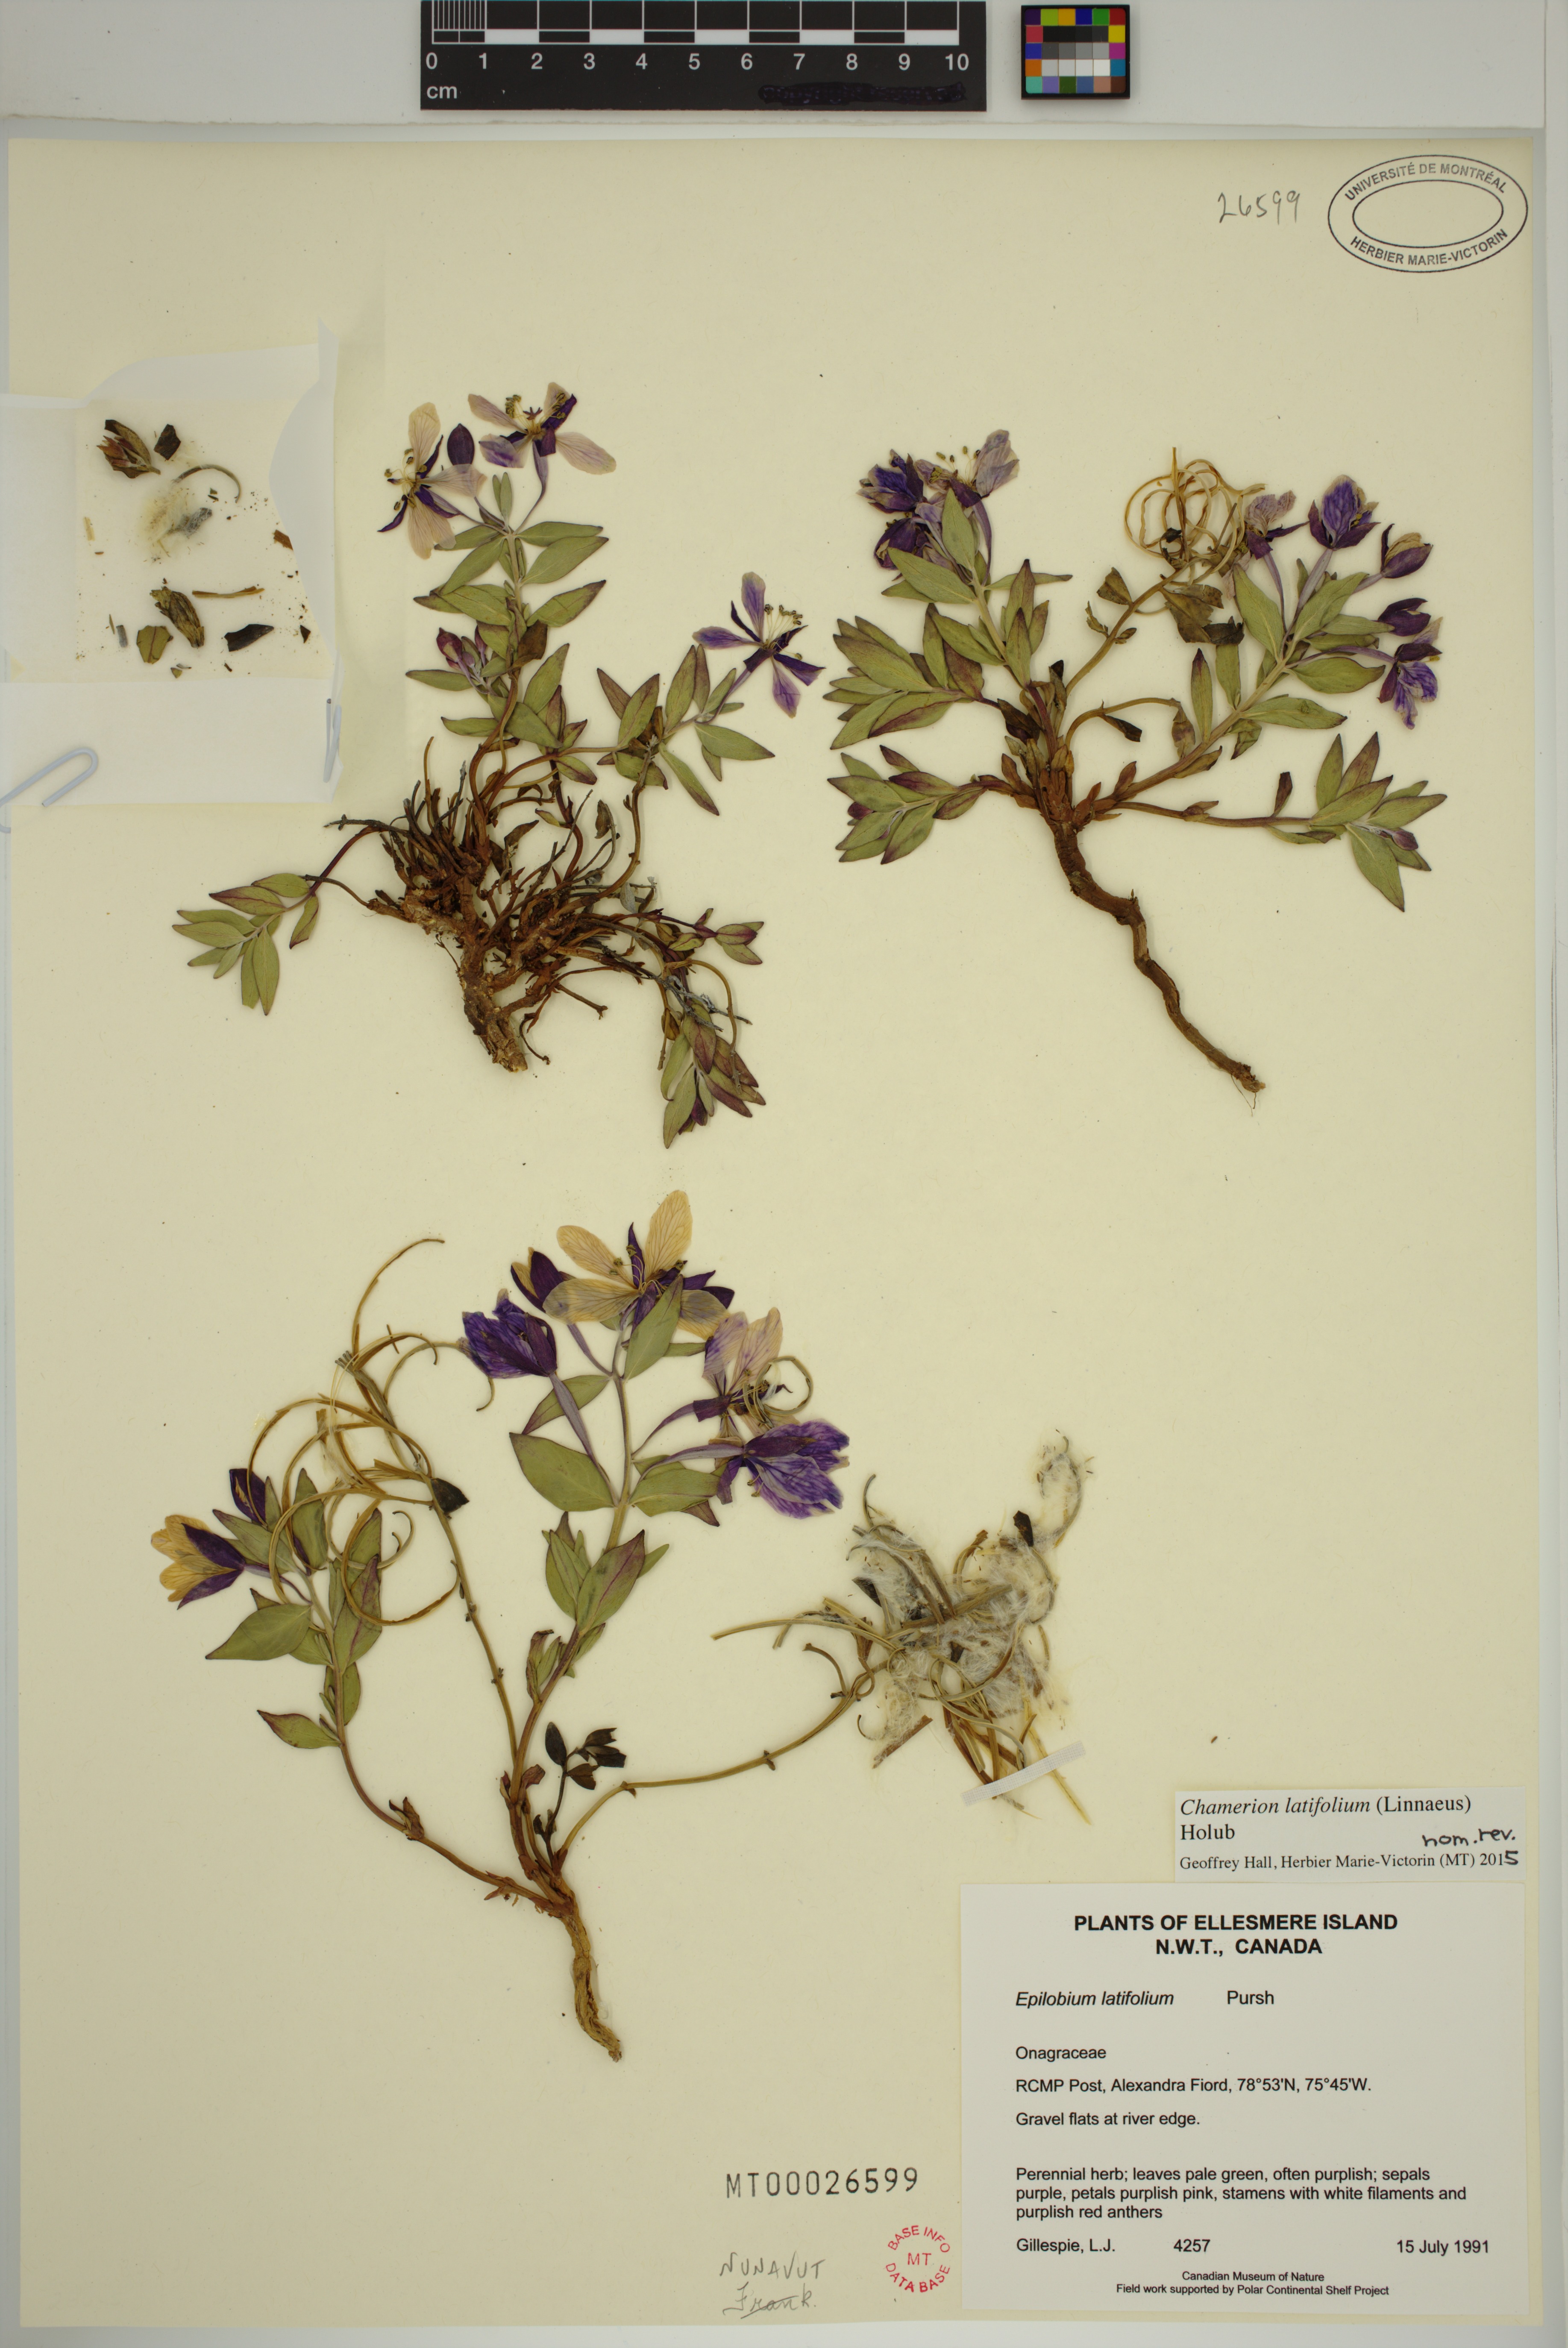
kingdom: Plantae
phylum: Tracheophyta
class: Magnoliopsida
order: Myrtales
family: Onagraceae
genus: Chamaenerion
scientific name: Chamaenerion latifolium
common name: Dwarf fireweed
